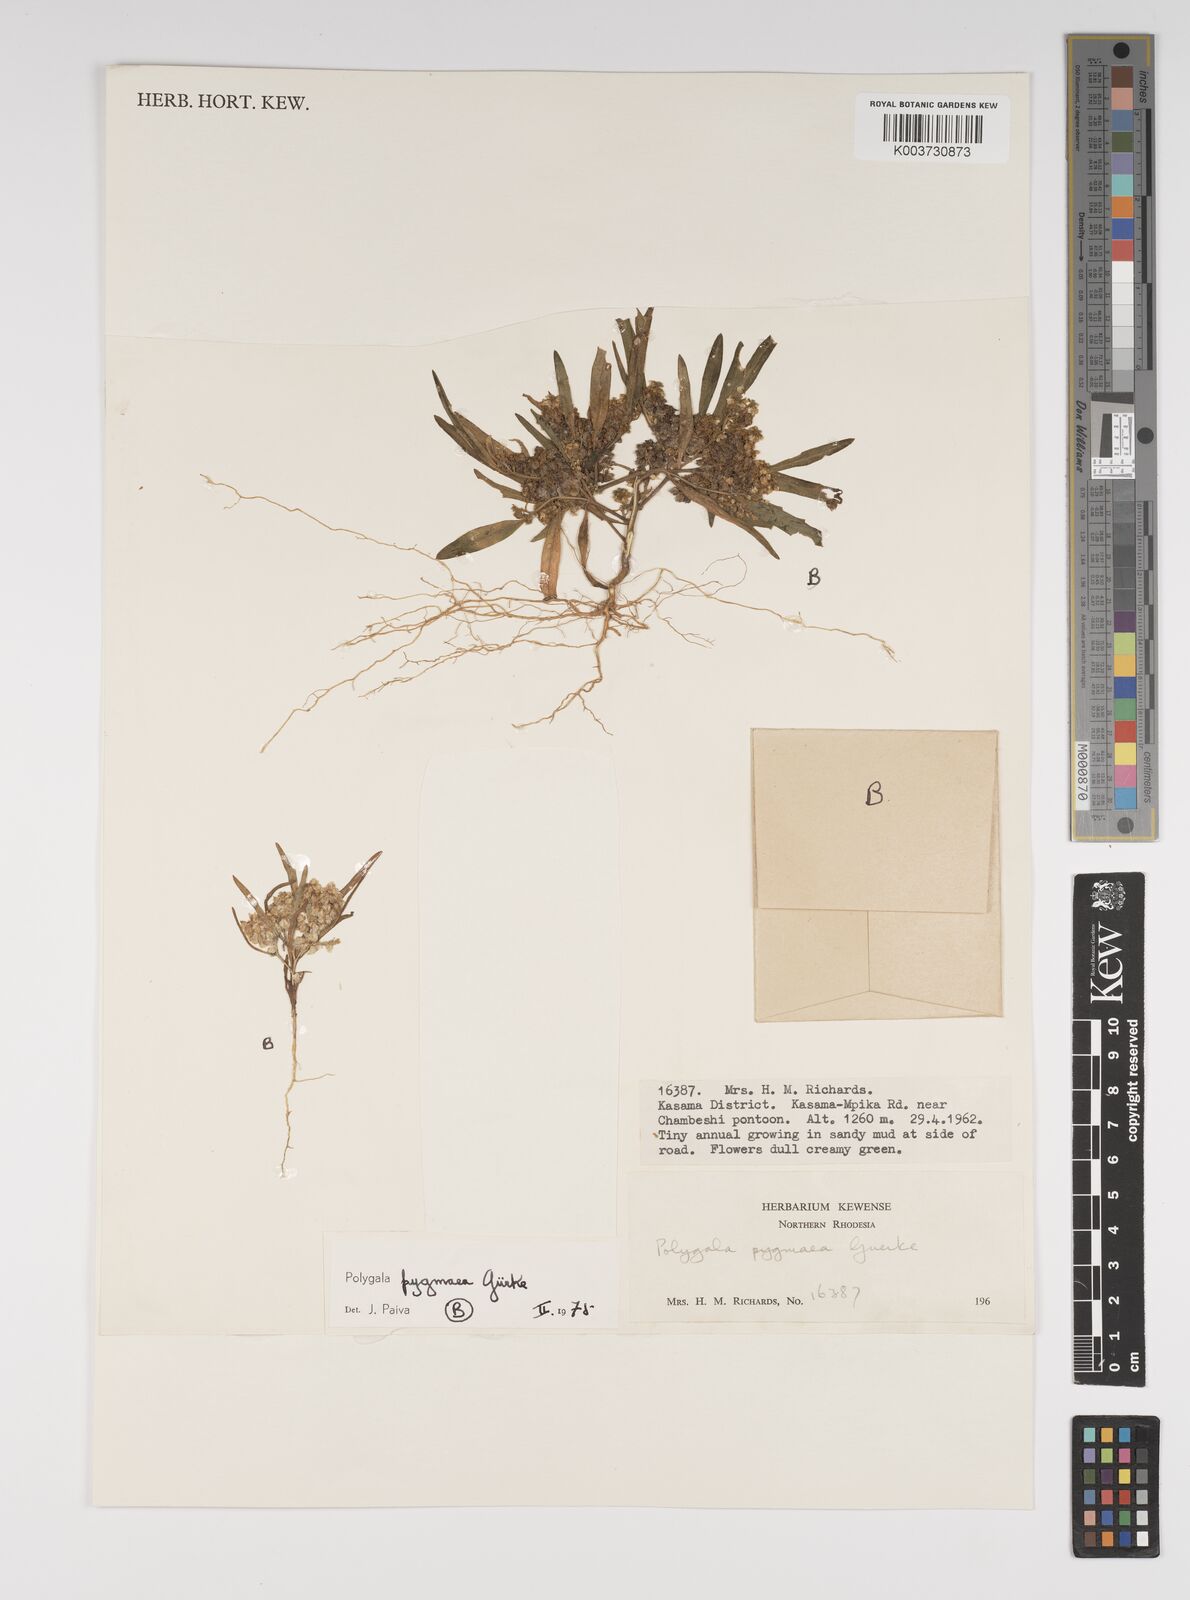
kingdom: Plantae
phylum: Tracheophyta
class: Magnoliopsida
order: Fabales
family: Polygalaceae
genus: Polygala
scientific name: Polygala welwitschii
